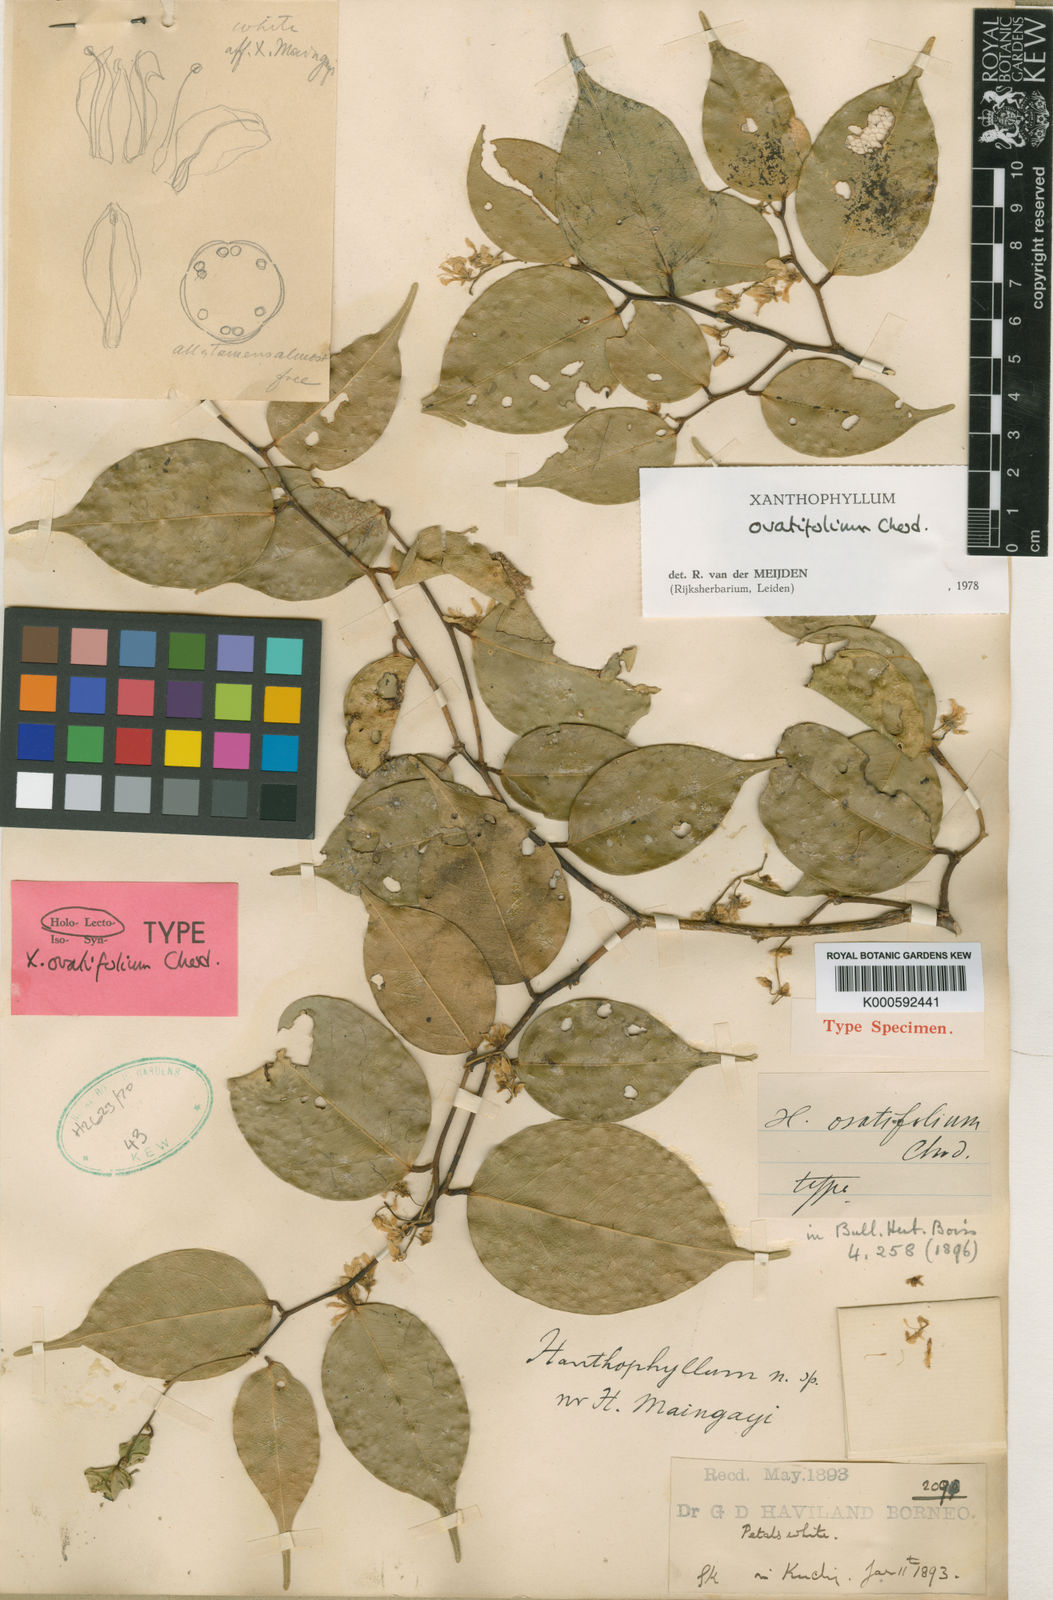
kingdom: Plantae
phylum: Tracheophyta
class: Magnoliopsida
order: Fabales
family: Polygalaceae
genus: Xanthophyllum
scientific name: Xanthophyllum ovatifolium
